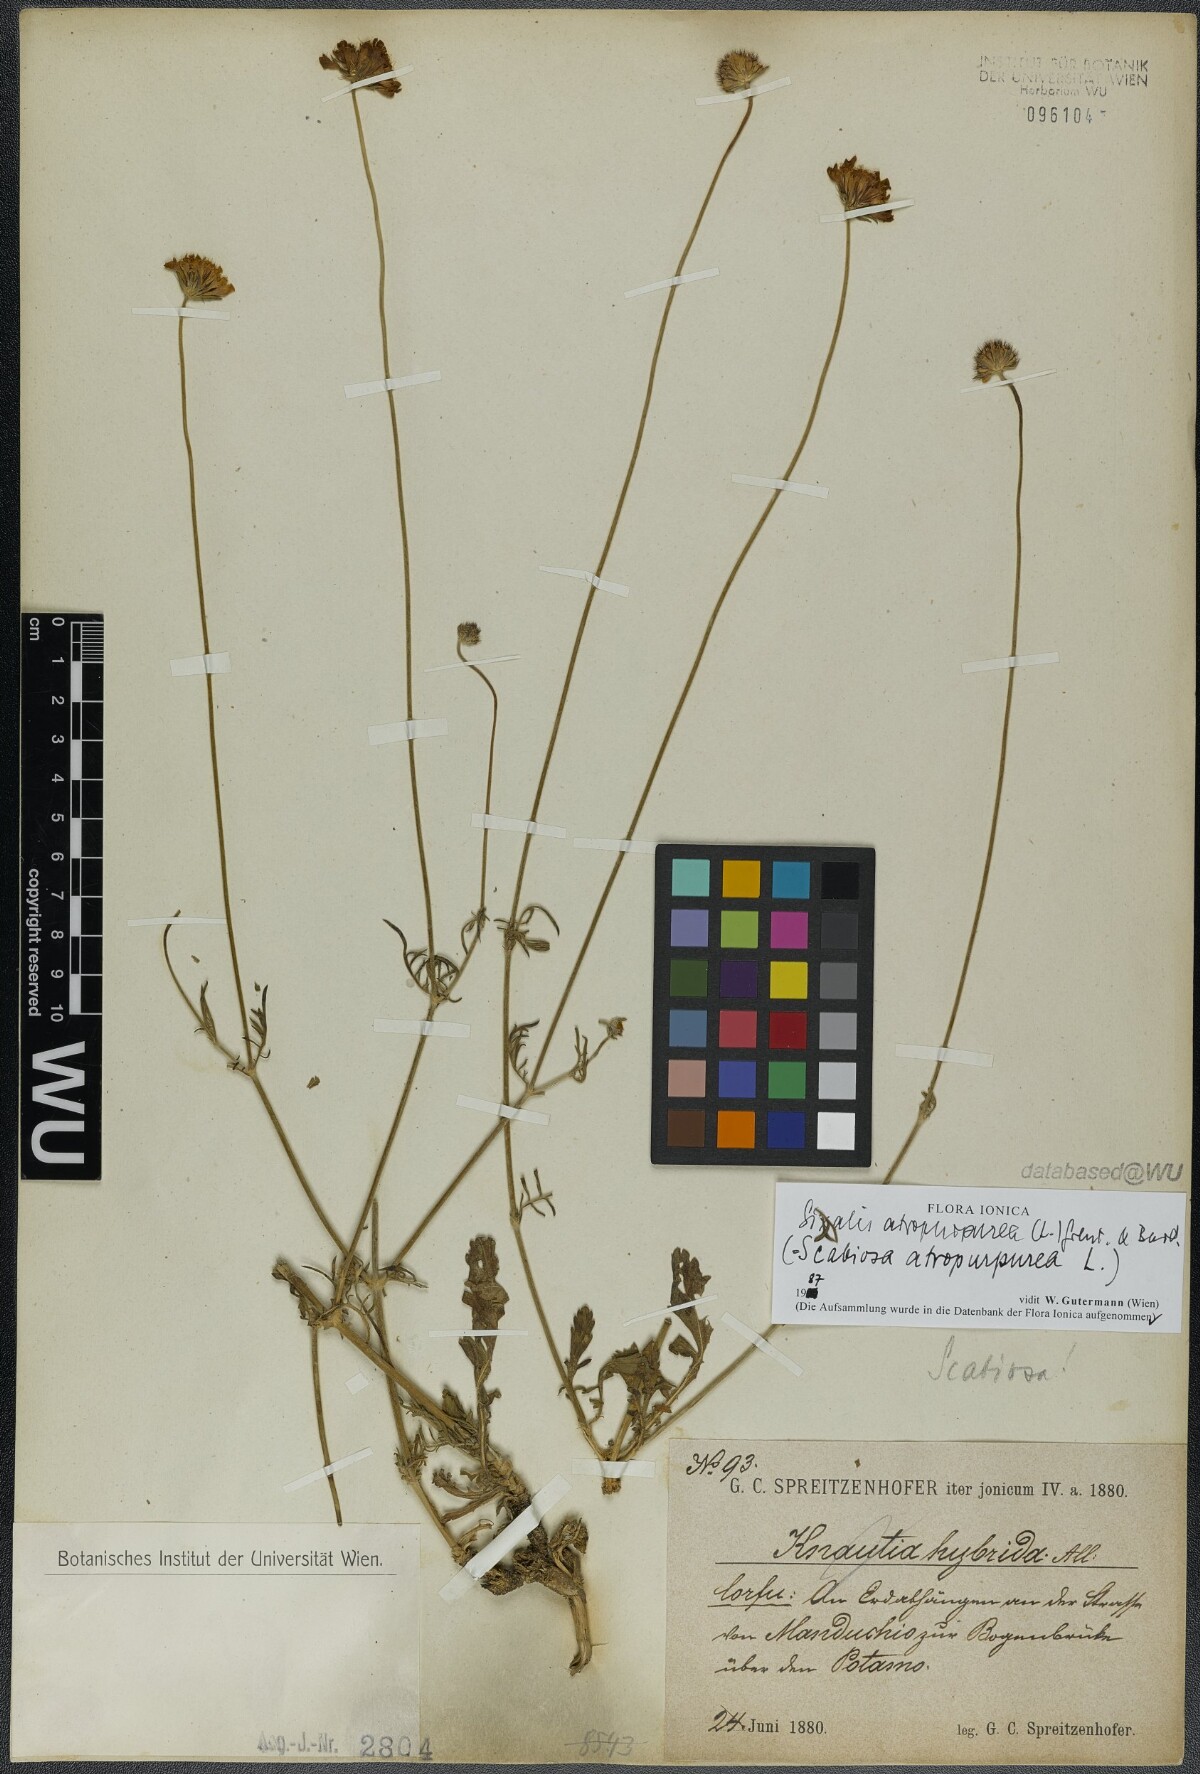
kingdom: Plantae
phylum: Tracheophyta
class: Magnoliopsida
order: Dipsacales
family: Caprifoliaceae
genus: Sixalix
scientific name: Sixalix atropurpurea
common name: Sweet scabious
